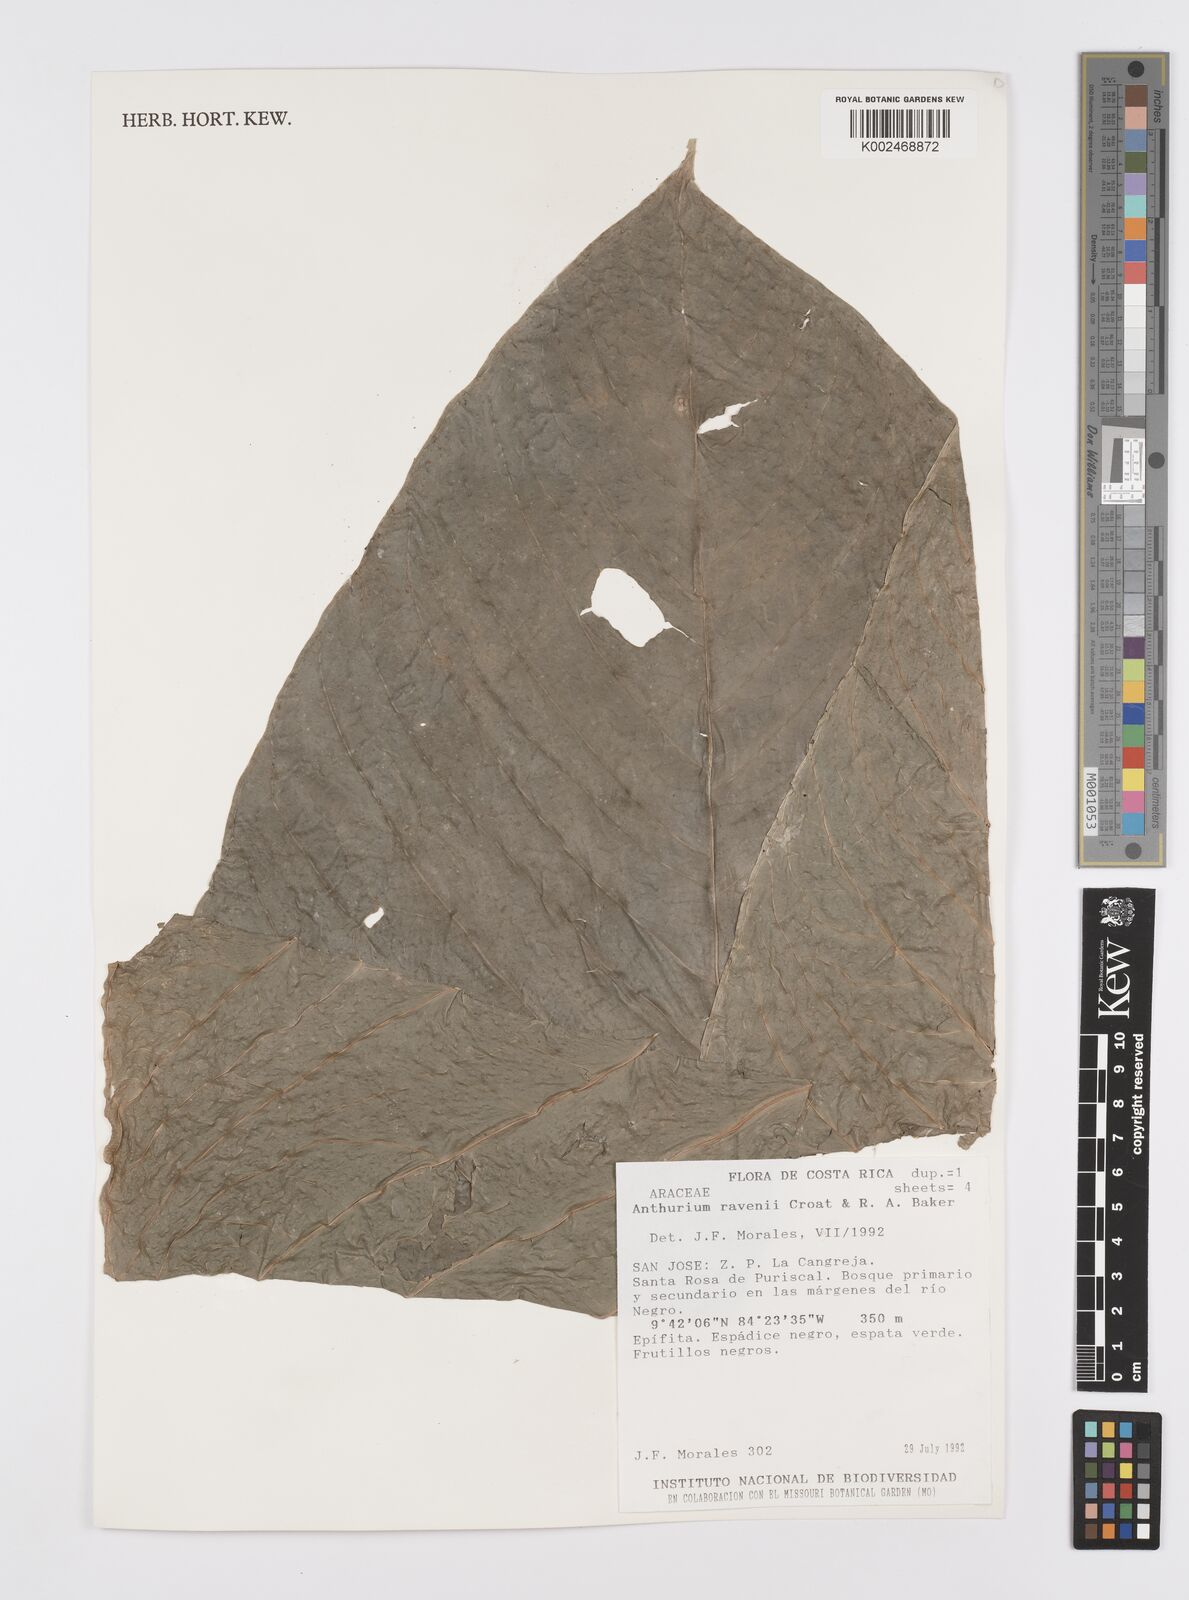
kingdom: Plantae
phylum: Tracheophyta
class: Liliopsida
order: Alismatales
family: Araceae
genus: Anthurium
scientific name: Anthurium ravenii
